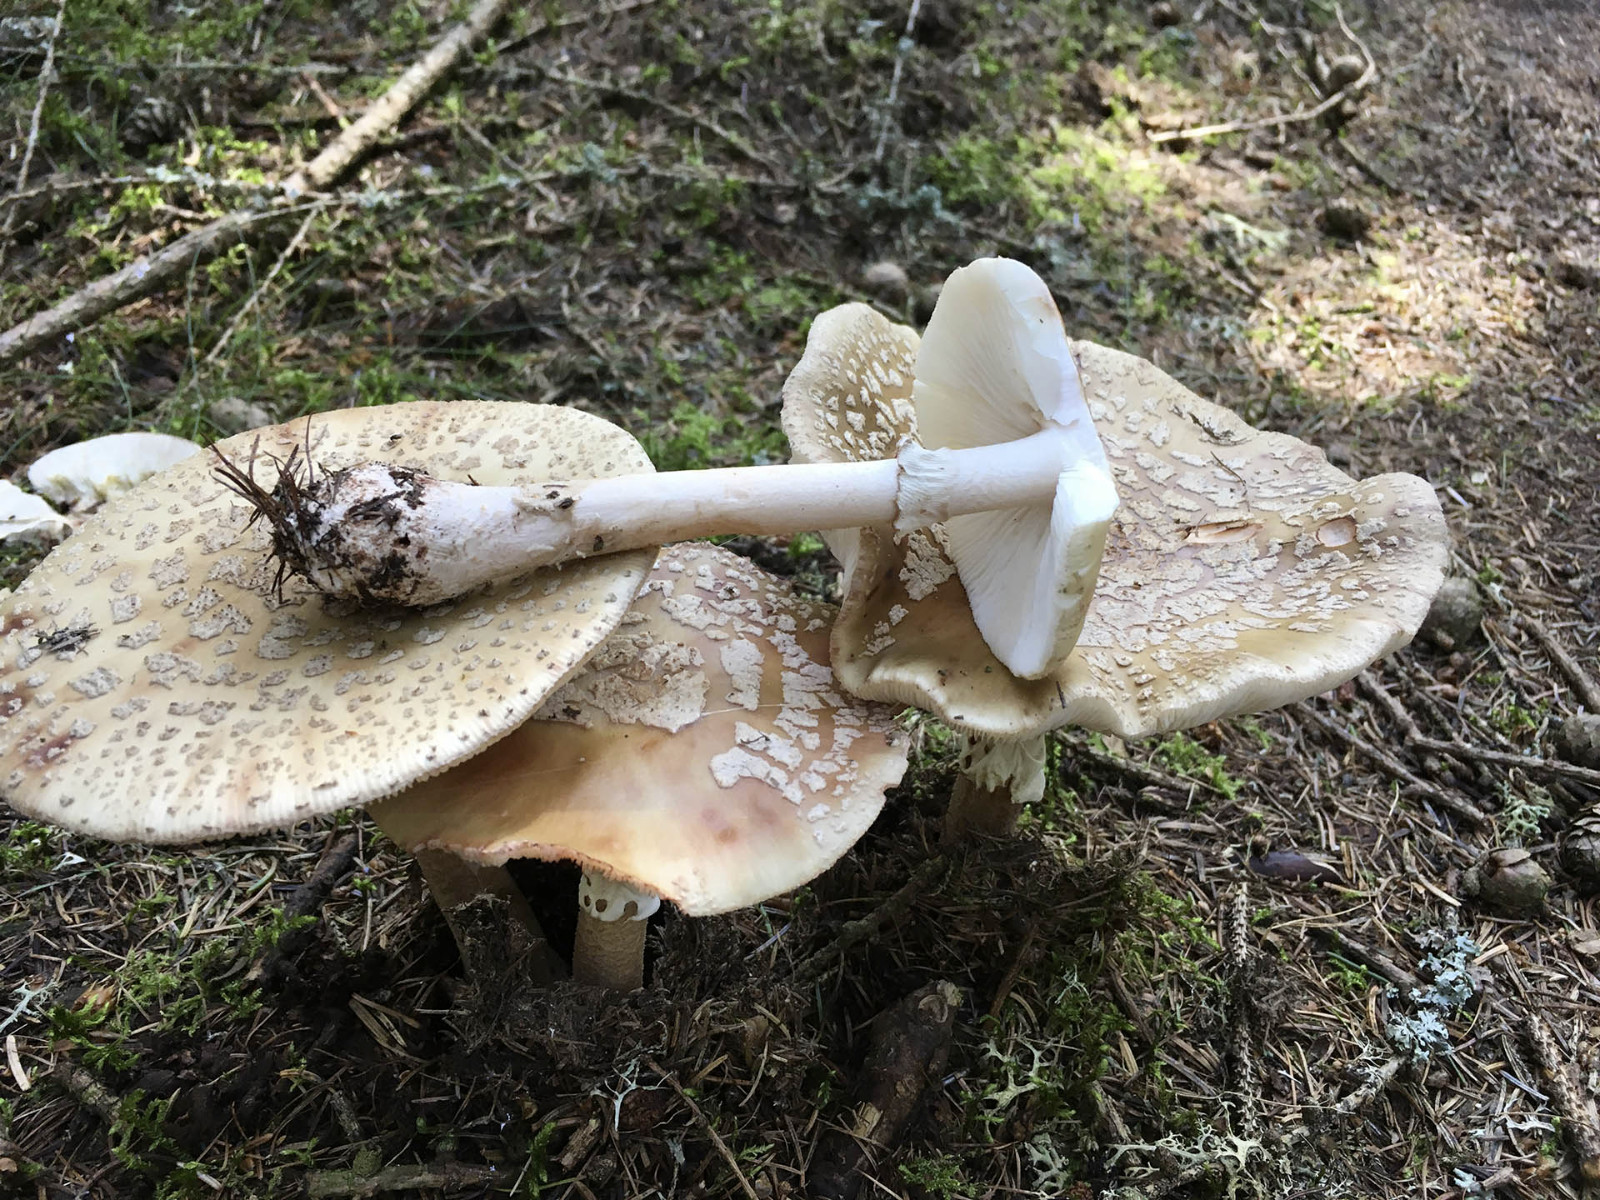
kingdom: Fungi
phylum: Basidiomycota
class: Agaricomycetes
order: Agaricales
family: Amanitaceae
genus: Amanita
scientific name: Amanita rubescens
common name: rødmende fluesvamp
